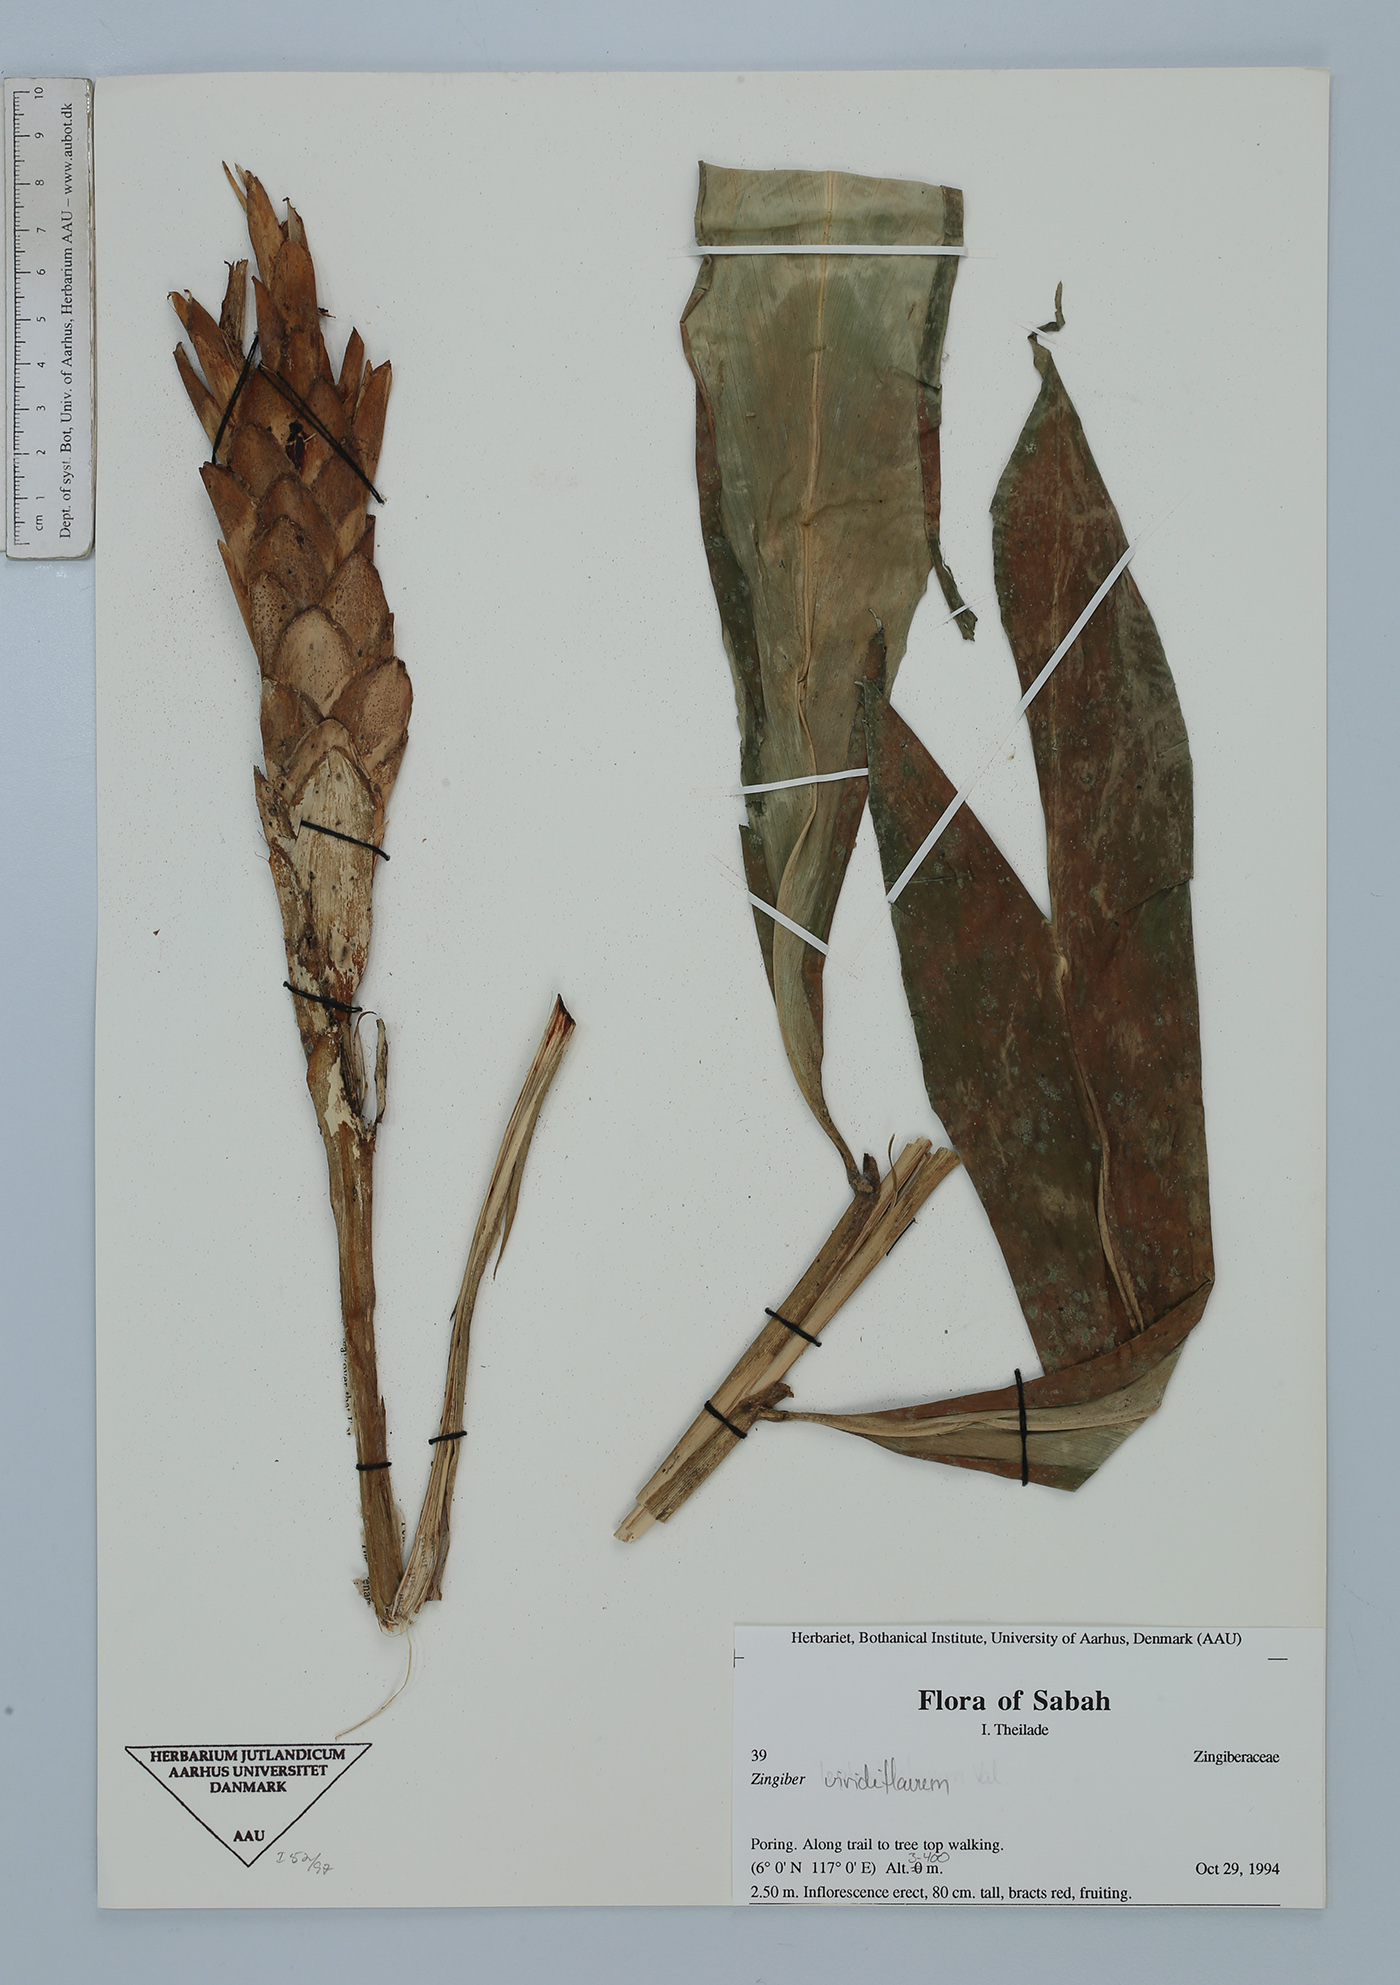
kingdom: Plantae
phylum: Tracheophyta
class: Liliopsida
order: Zingiberales
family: Zingiberaceae
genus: Zingiber
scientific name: Zingiber viridiflavum
